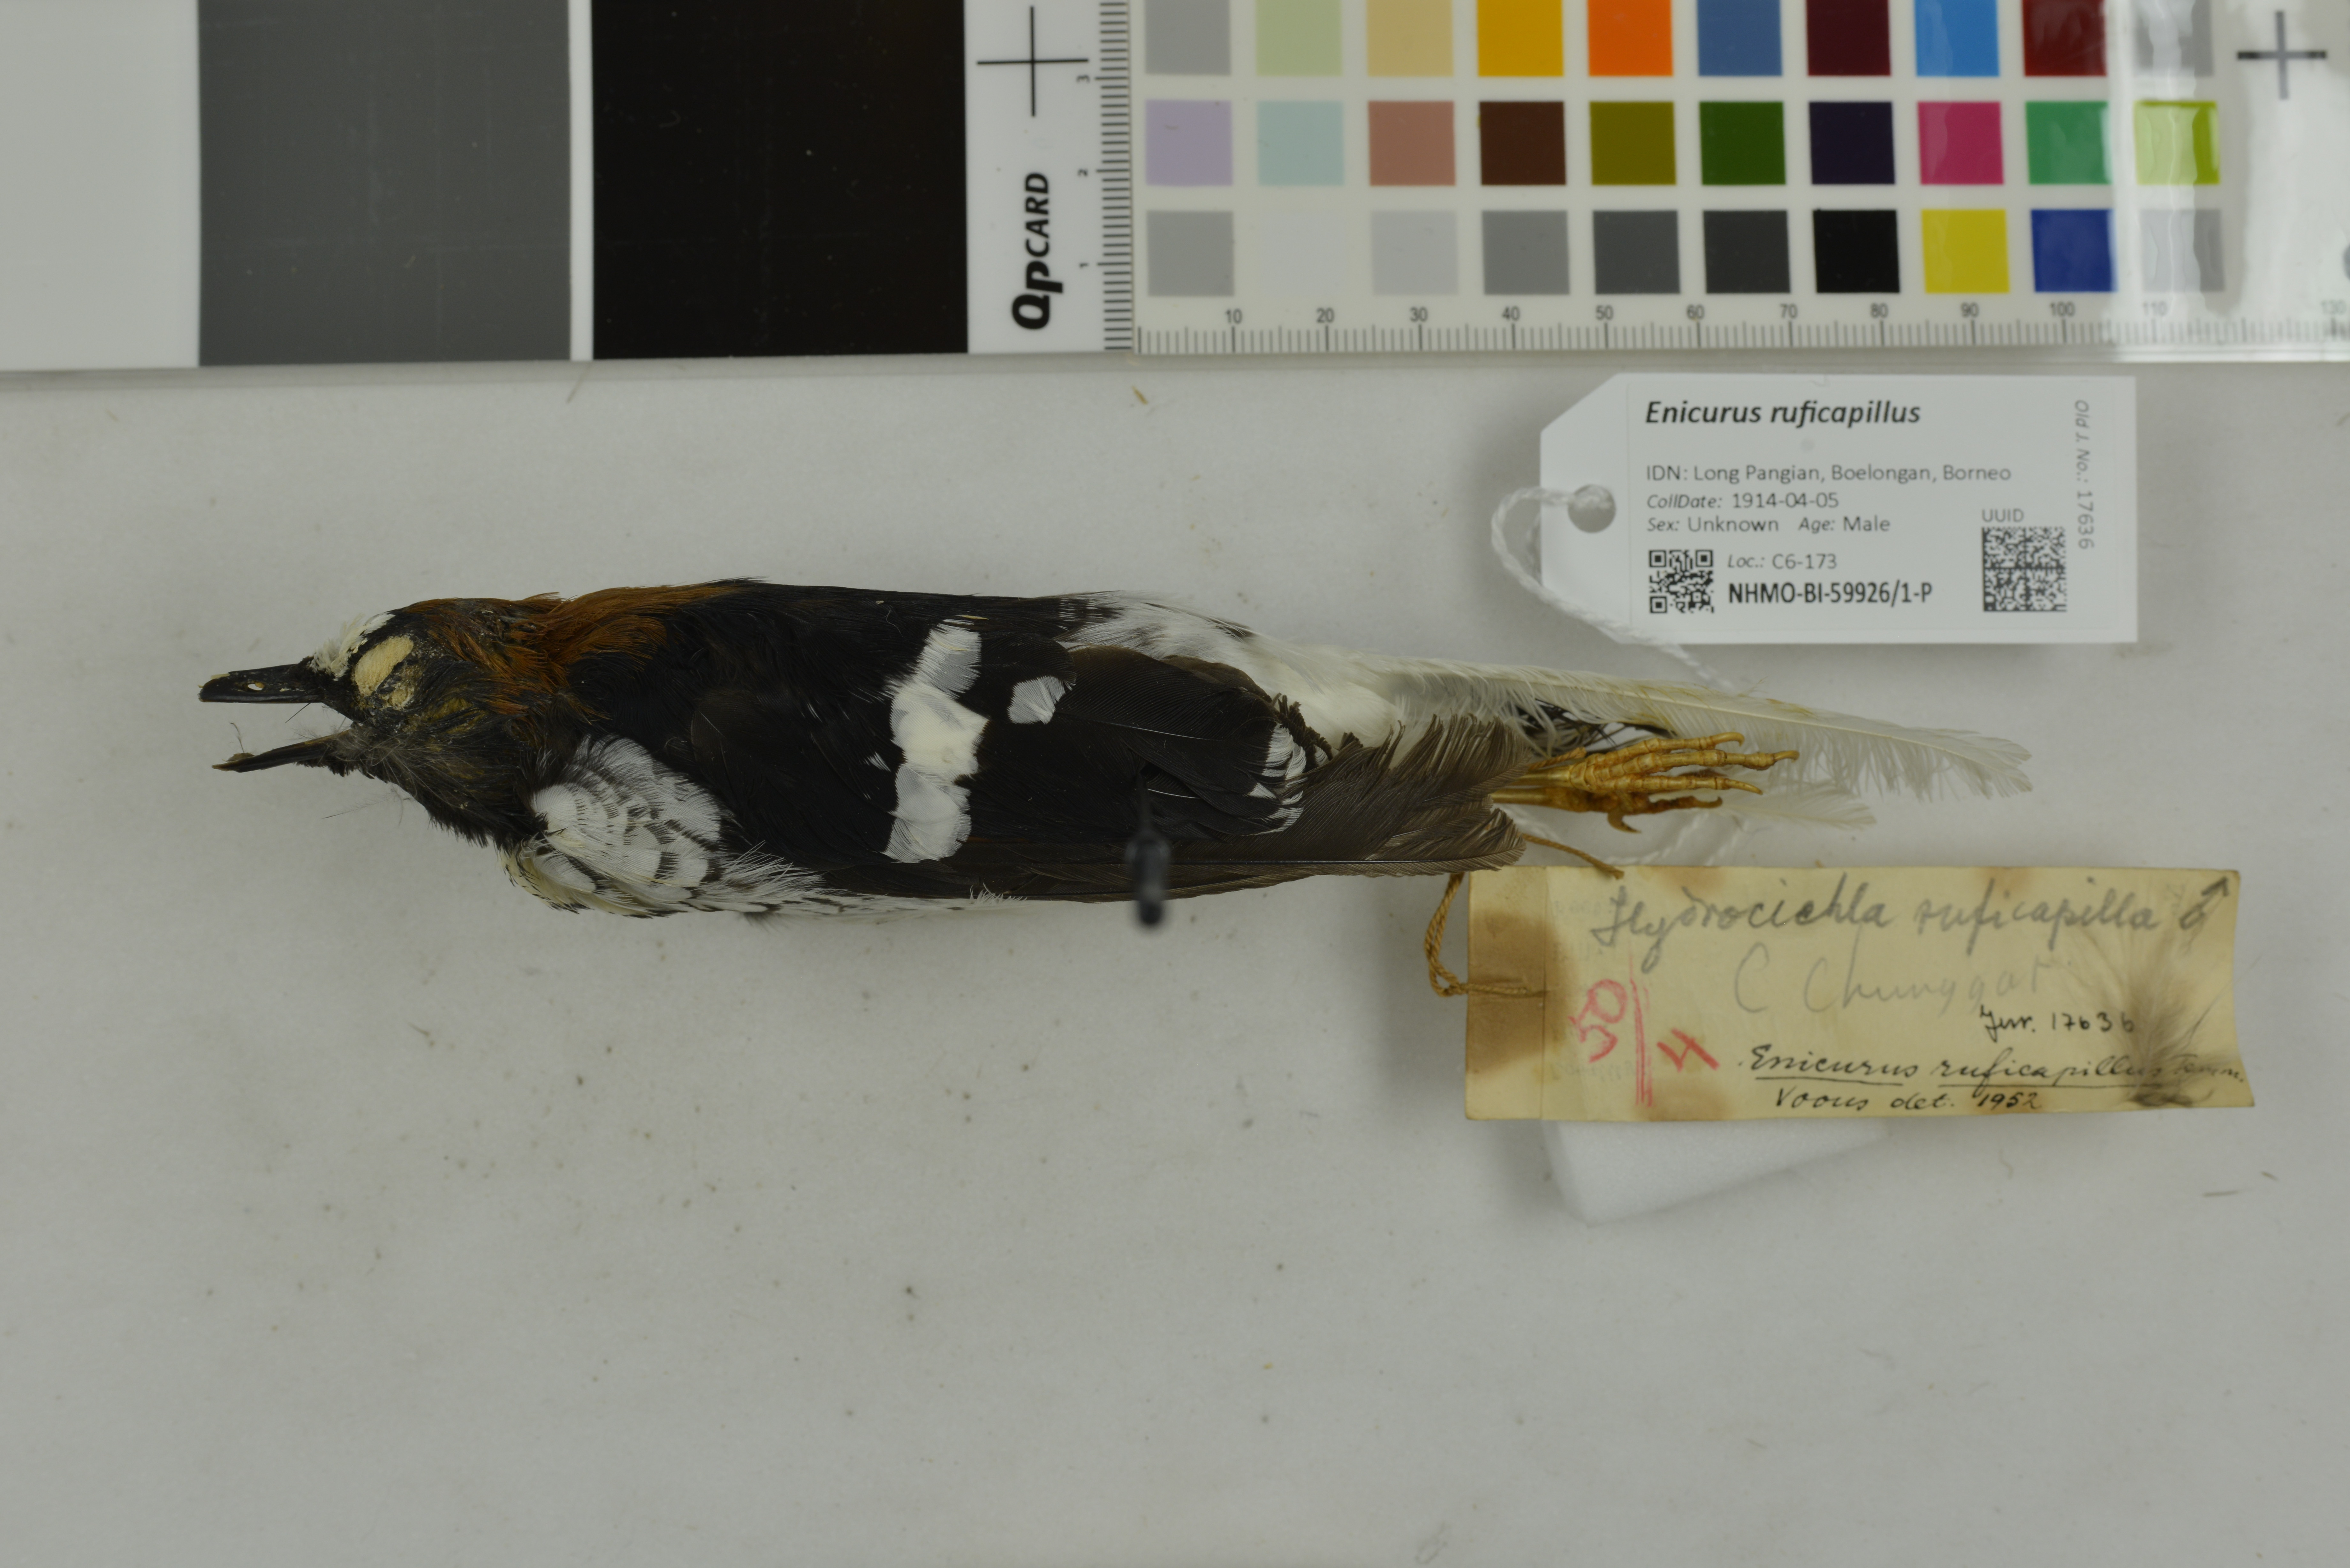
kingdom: Animalia
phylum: Chordata
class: Aves
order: Passeriformes
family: Muscicapidae
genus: Enicurus
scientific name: Enicurus ruficapillus
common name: Chestnut-naped forktail
